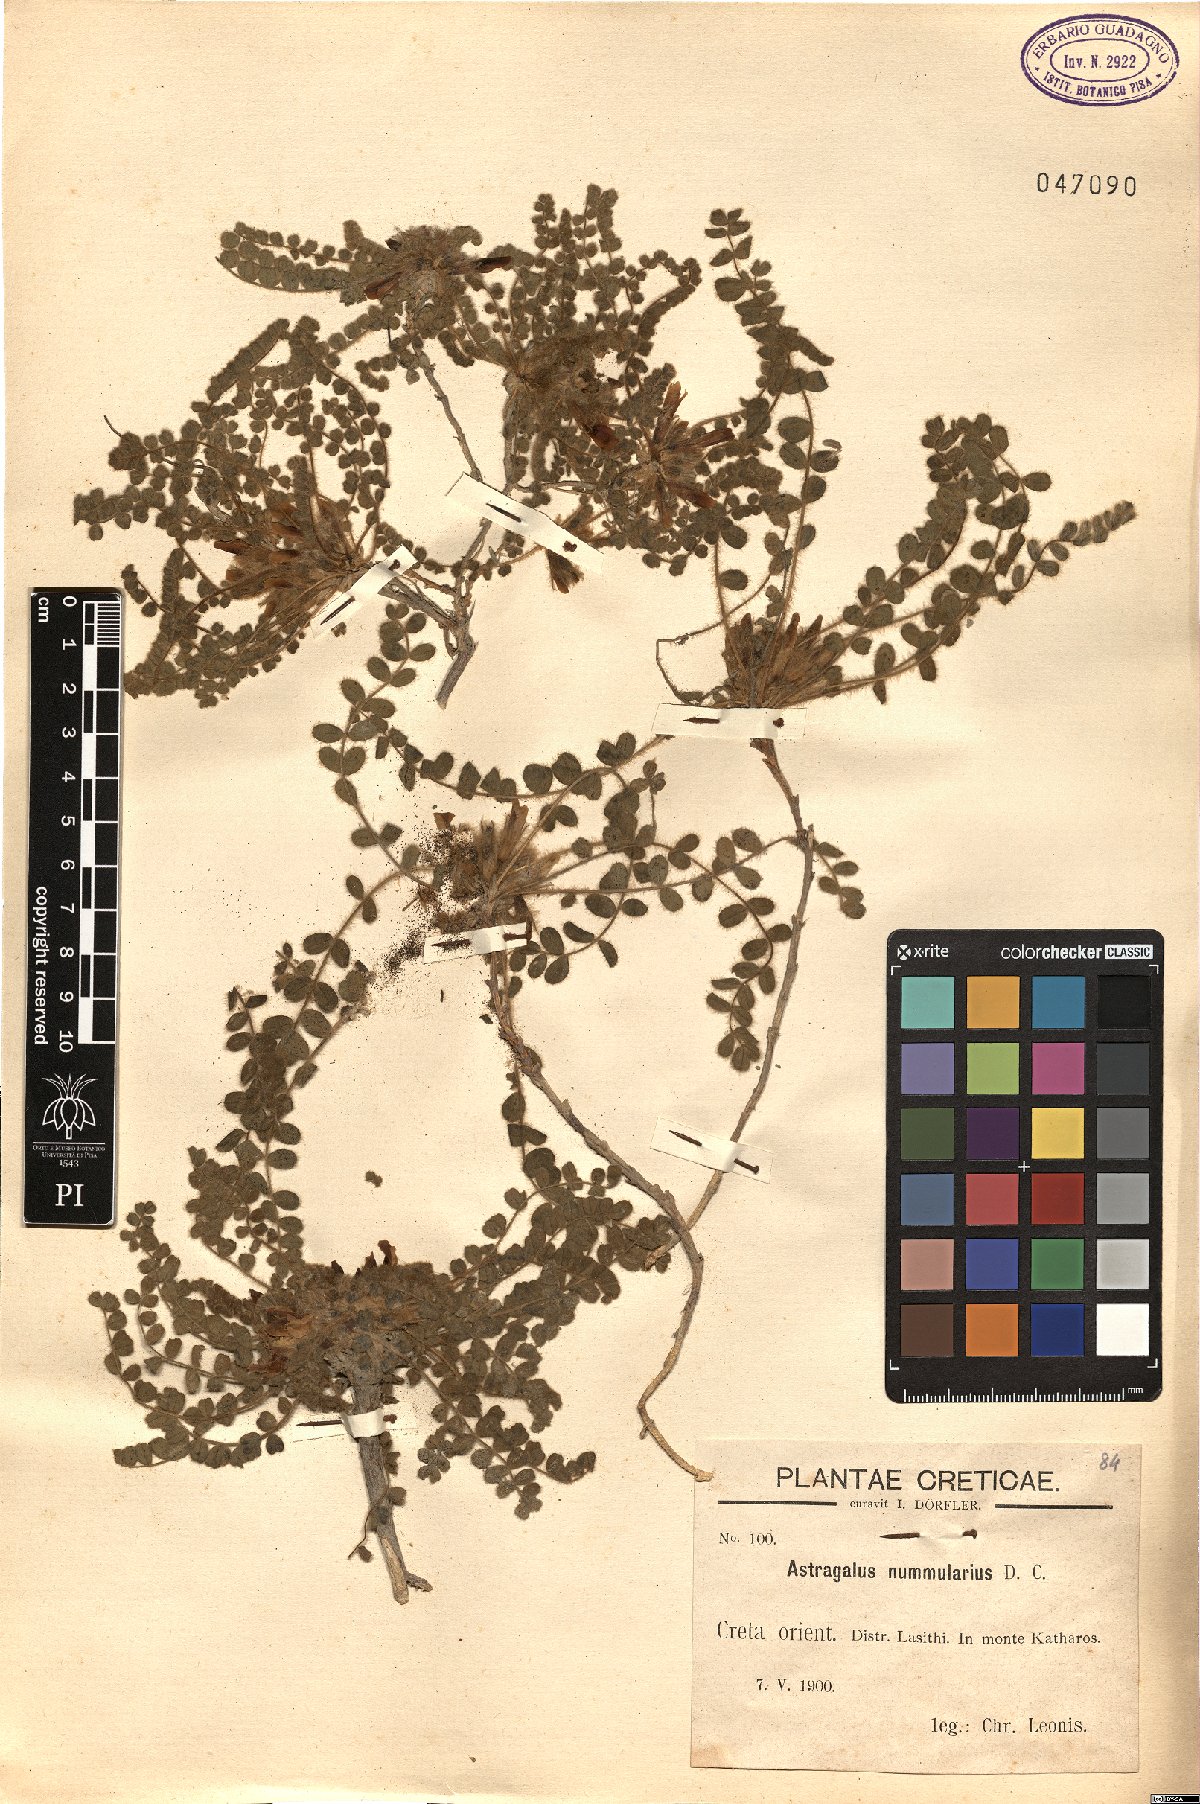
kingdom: Plantae
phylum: Tracheophyta
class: Magnoliopsida
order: Fabales
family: Fabaceae
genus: Astragalus
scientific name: Astragalus nummularius
